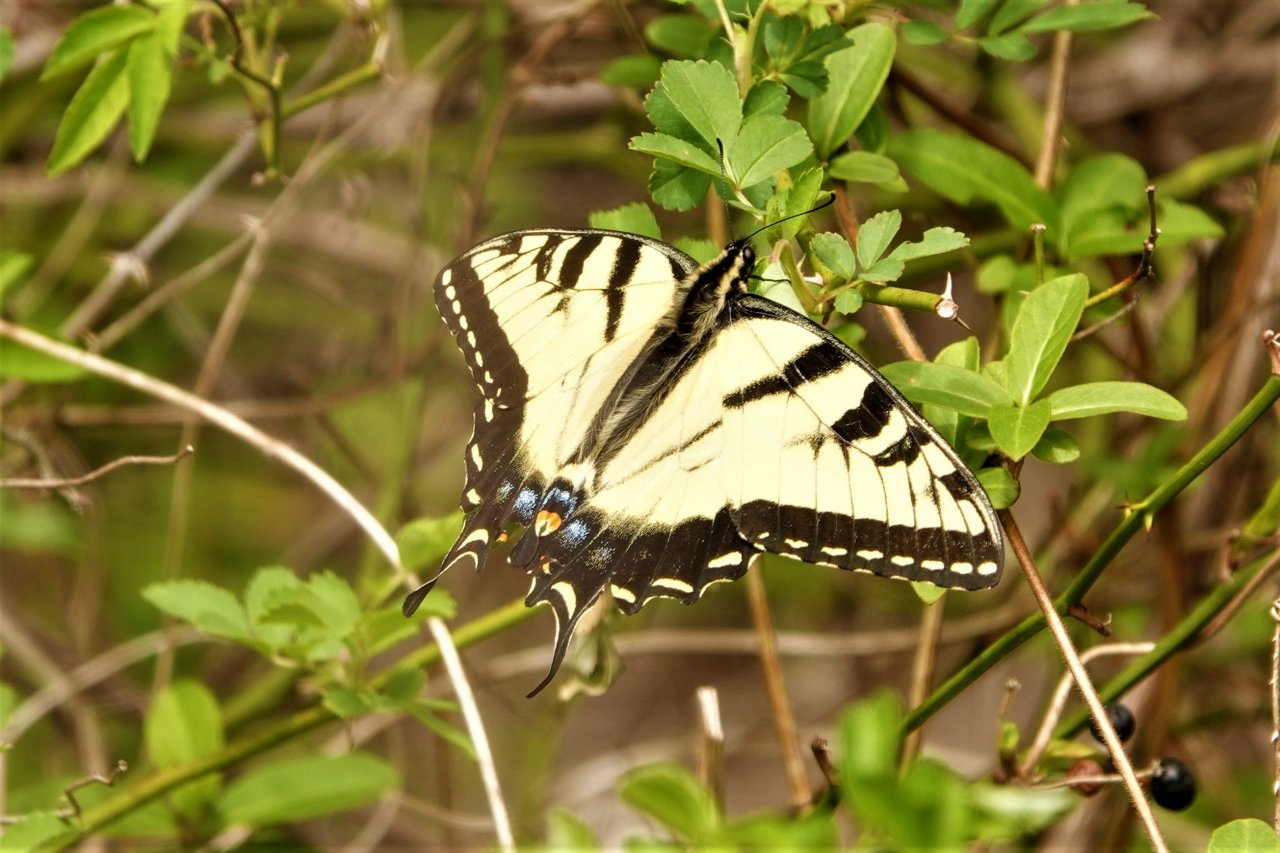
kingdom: Animalia
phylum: Arthropoda
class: Insecta
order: Lepidoptera
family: Papilionidae
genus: Pterourus
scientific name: Pterourus glaucus
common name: Eastern Tiger Swallowtail
